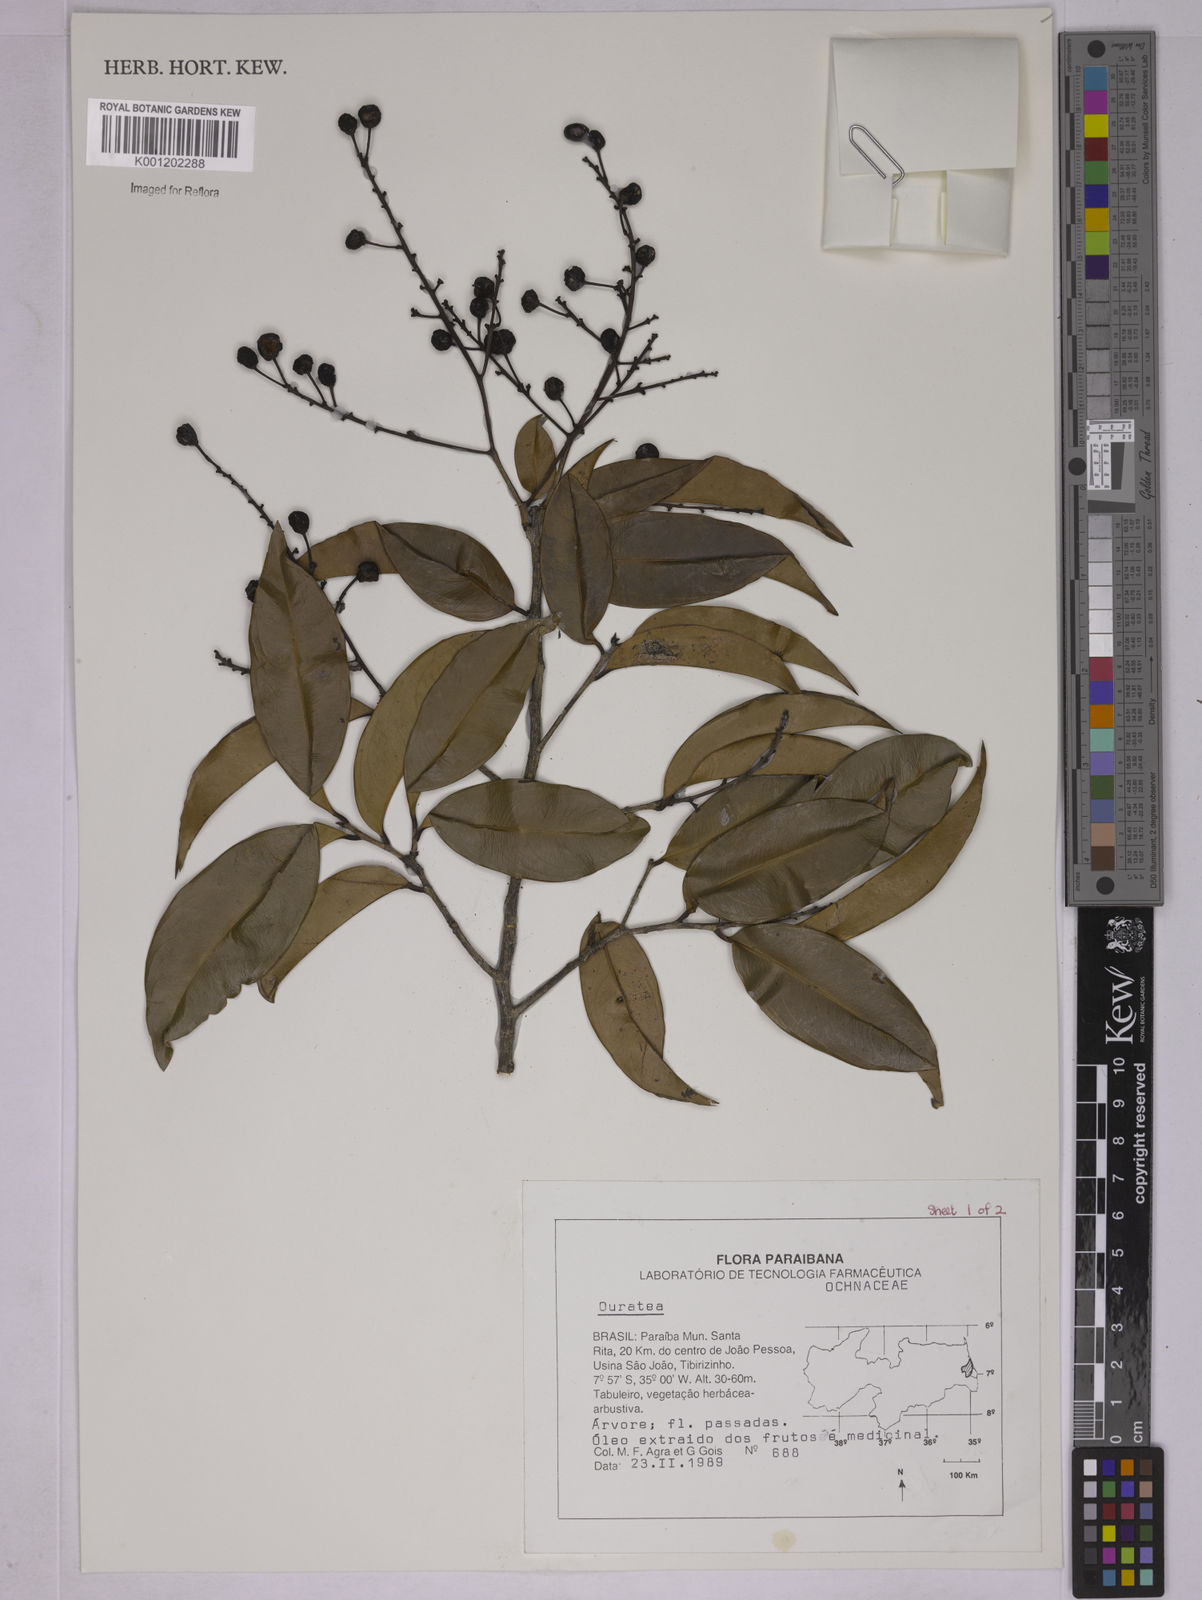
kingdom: Plantae
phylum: Tracheophyta
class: Magnoliopsida
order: Malpighiales
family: Ochnaceae
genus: Ouratea
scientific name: Ouratea
